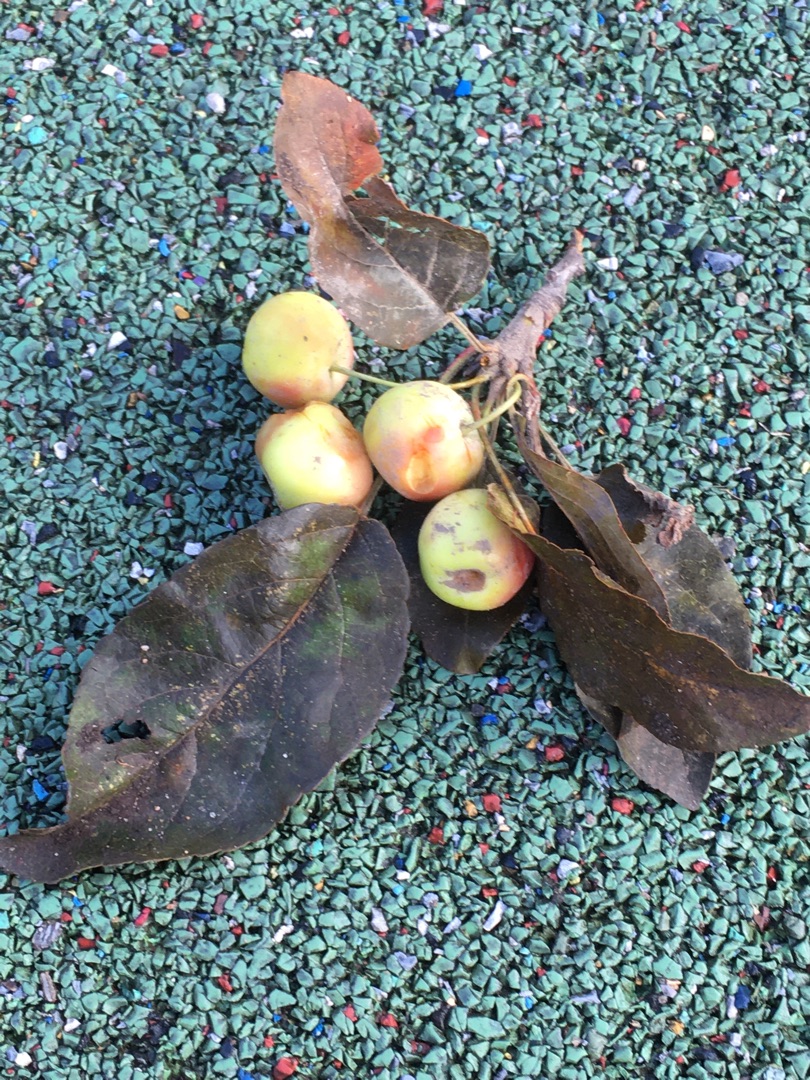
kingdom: Plantae
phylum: Tracheophyta
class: Magnoliopsida
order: Rosales
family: Rosaceae
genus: Malus
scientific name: Malus
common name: Æbleslægten
